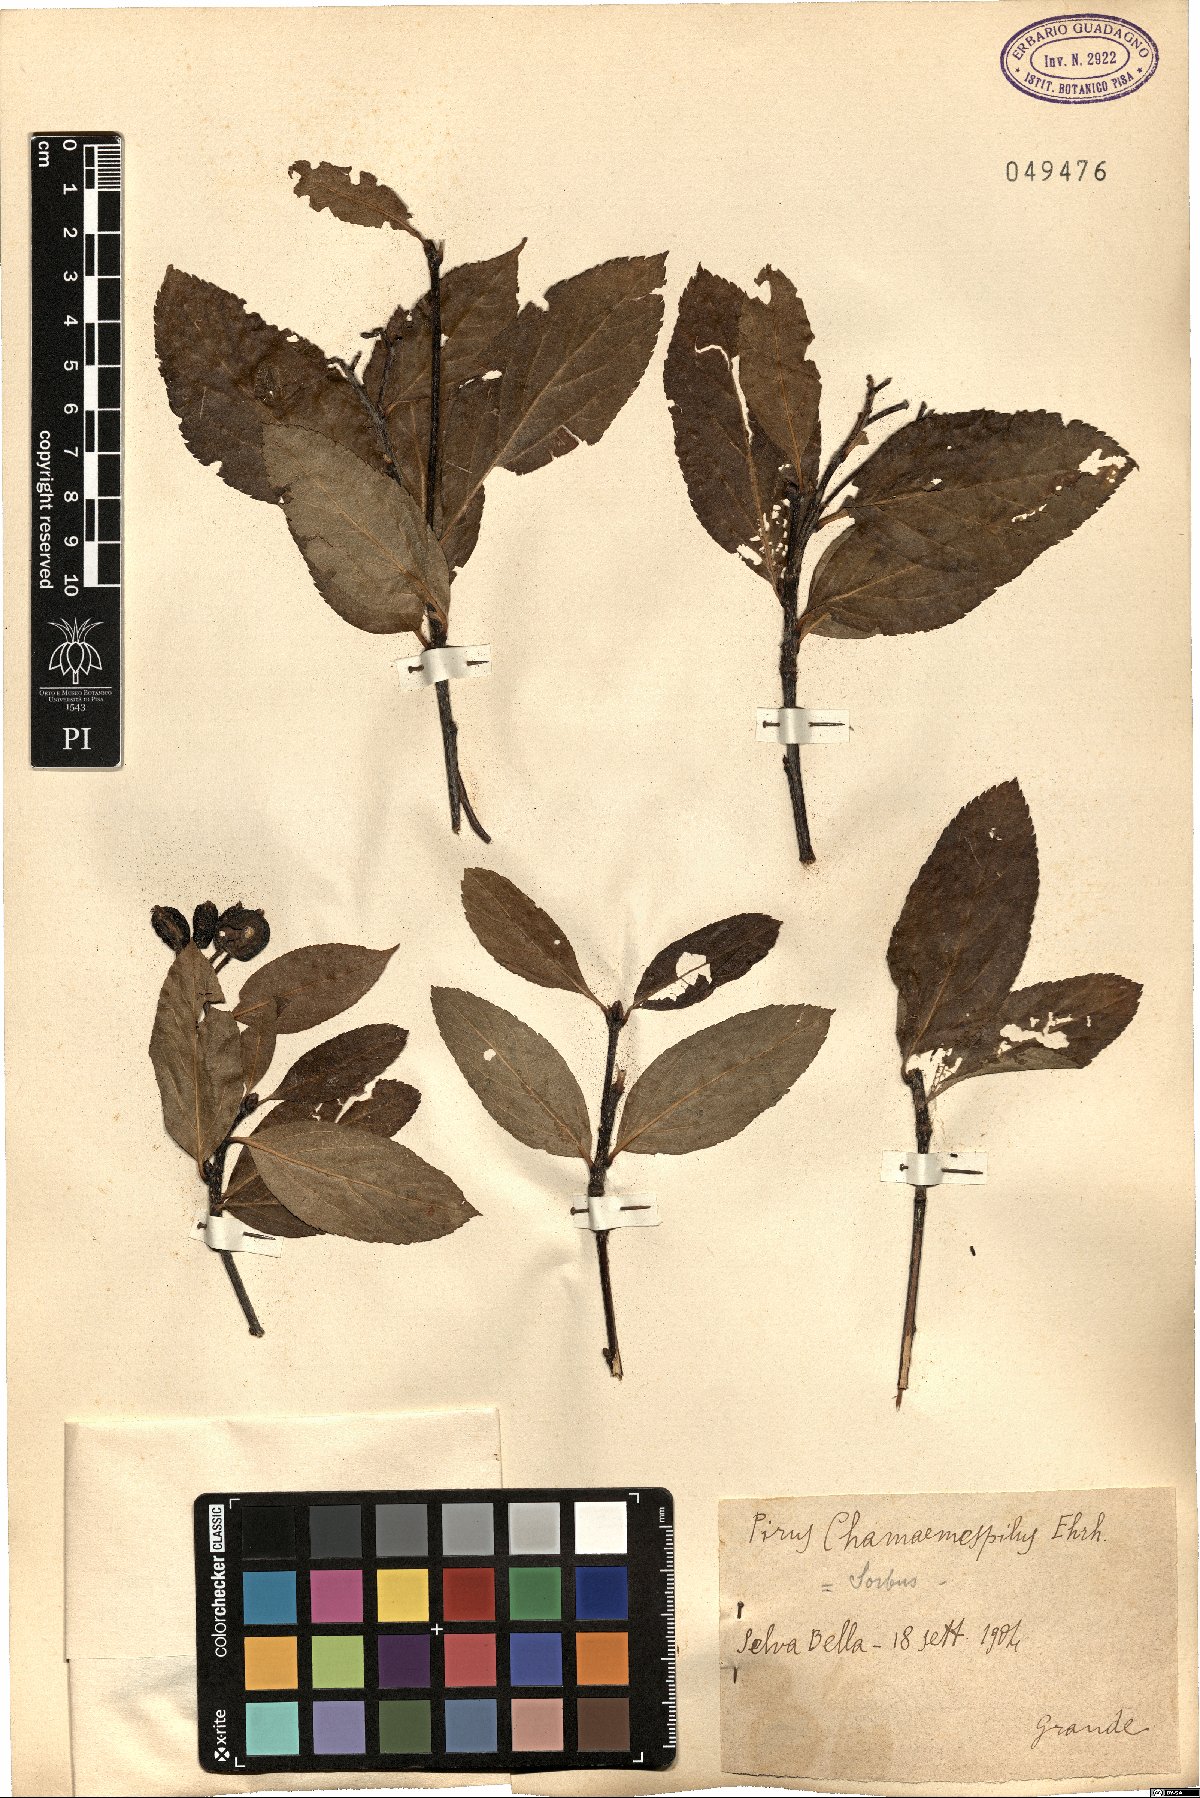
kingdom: Plantae
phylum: Tracheophyta
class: Magnoliopsida
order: Rosales
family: Rosaceae
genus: Chamaemespilus
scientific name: Chamaemespilus alpina
